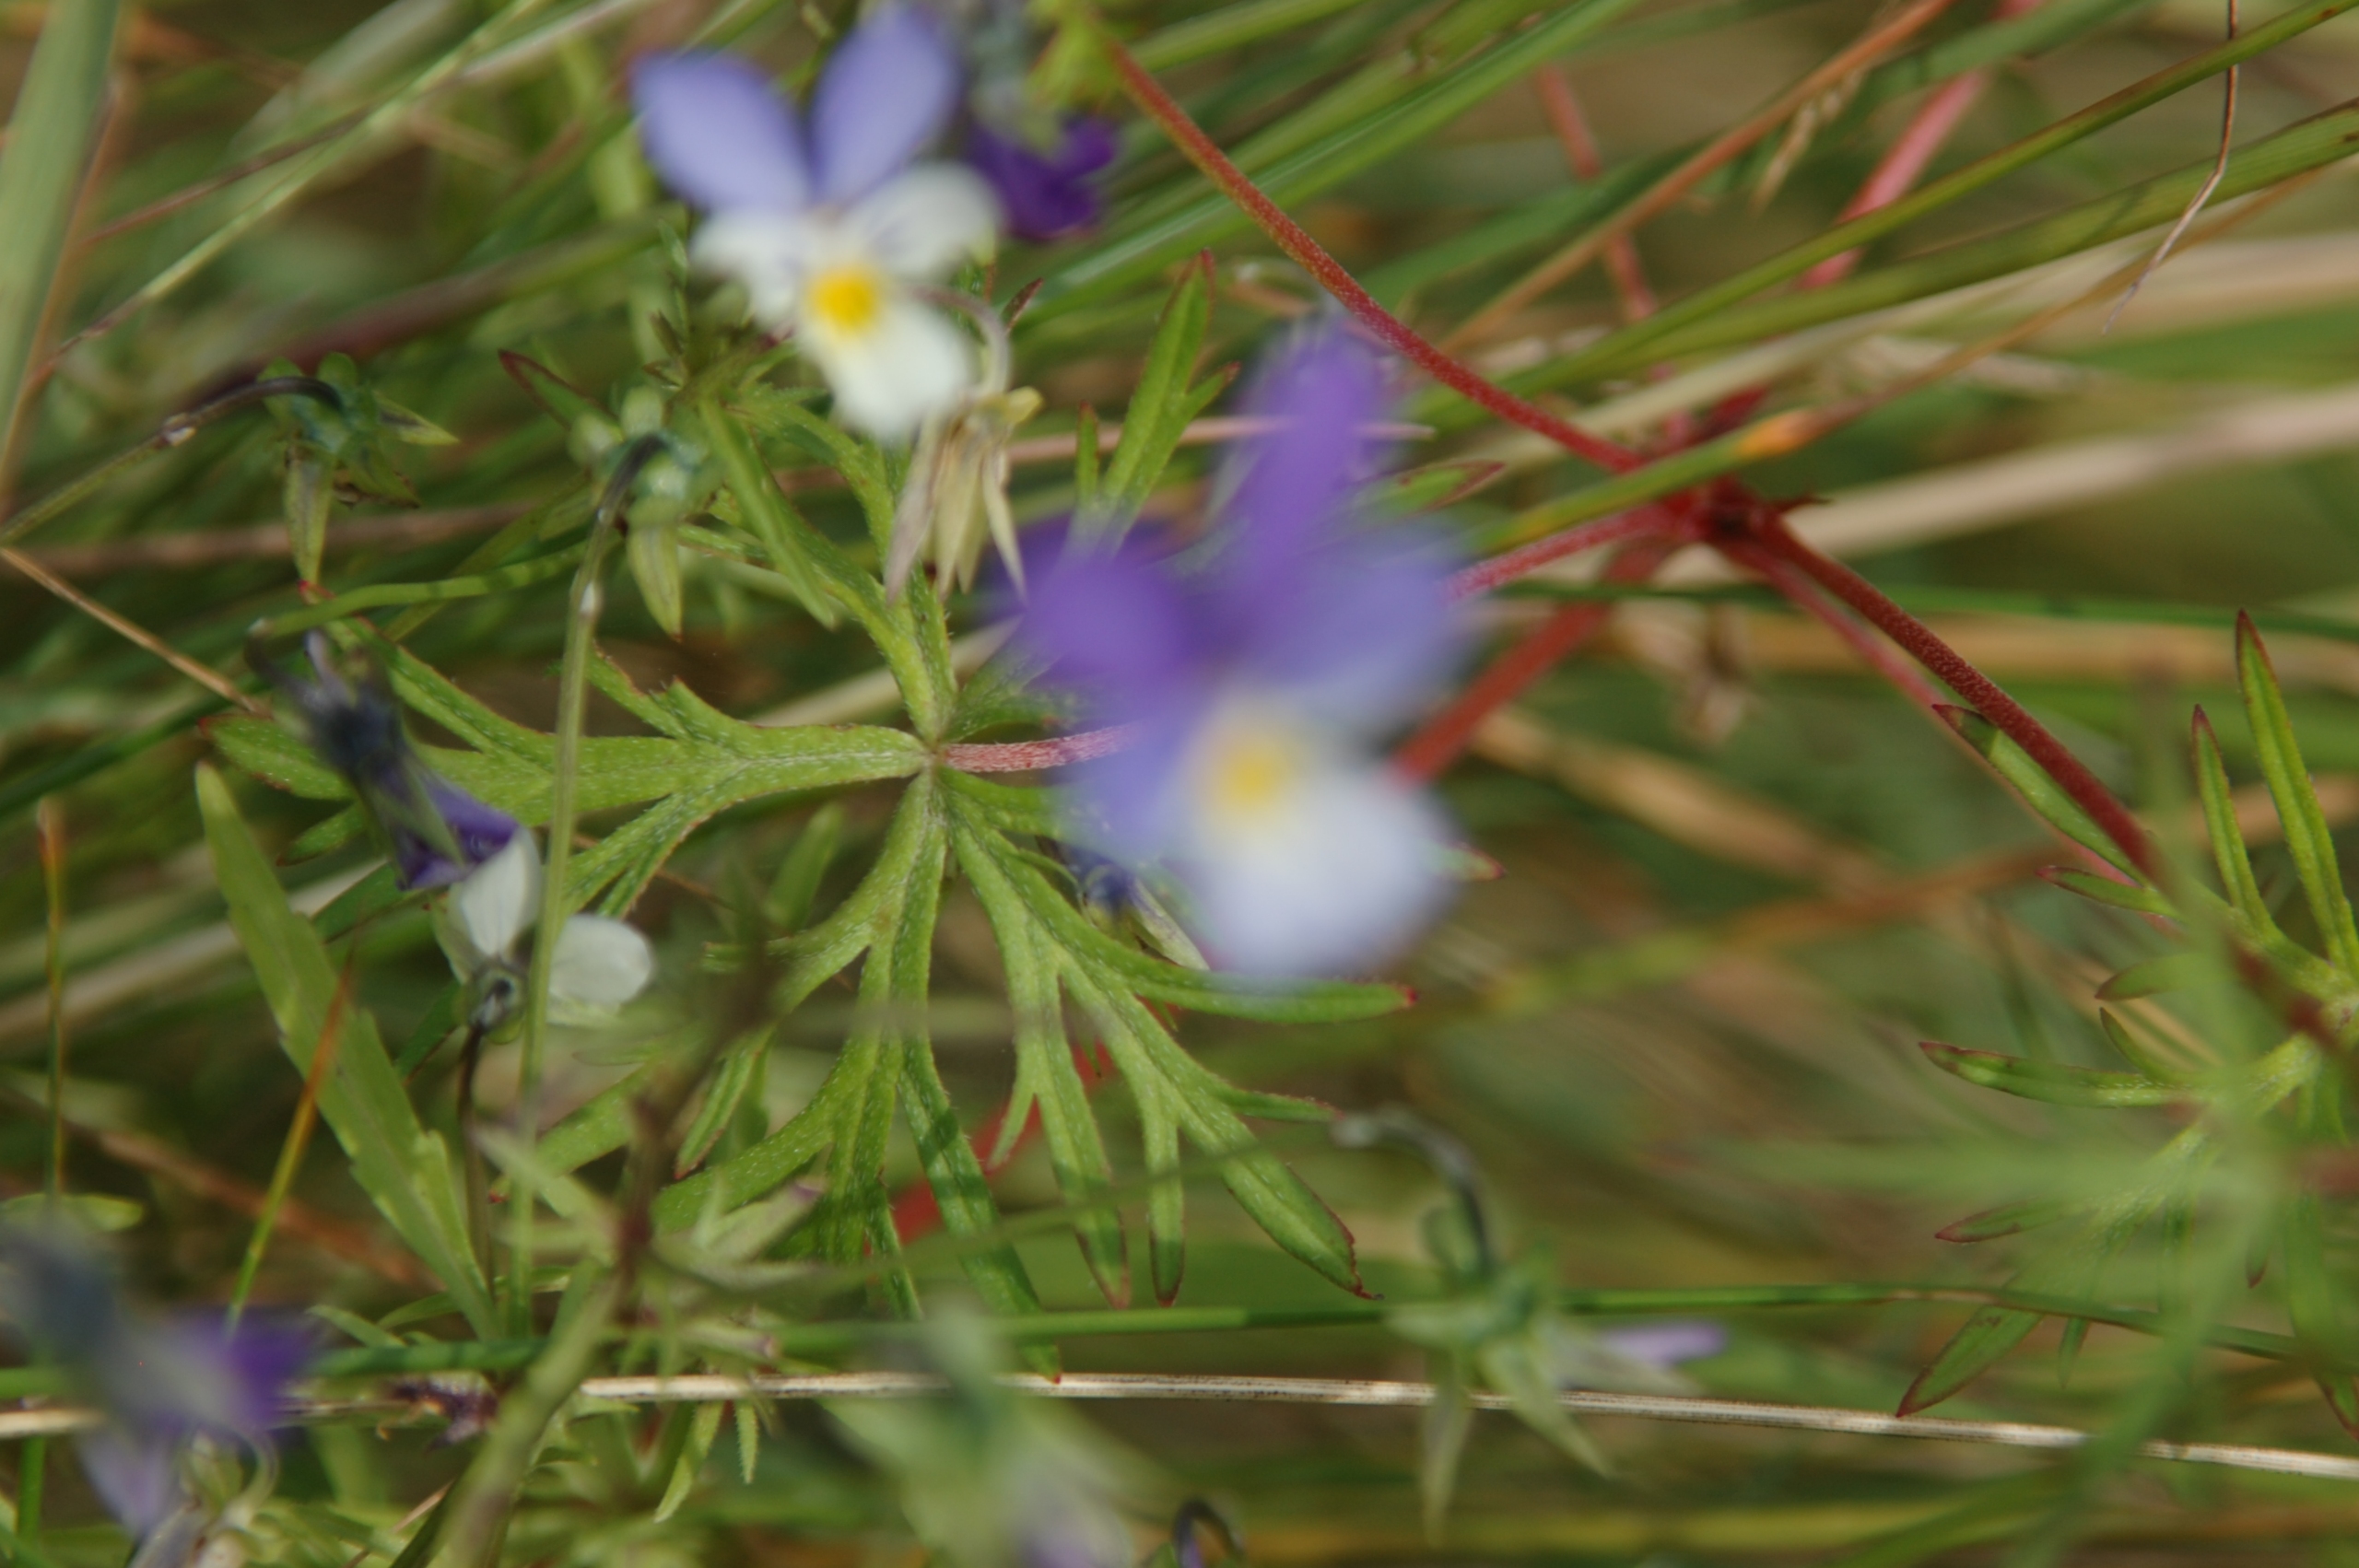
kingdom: Plantae
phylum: Tracheophyta
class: Magnoliopsida
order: Malpighiales
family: Violaceae
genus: Viola
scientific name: Viola tricolor
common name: Stedmoderblomst
